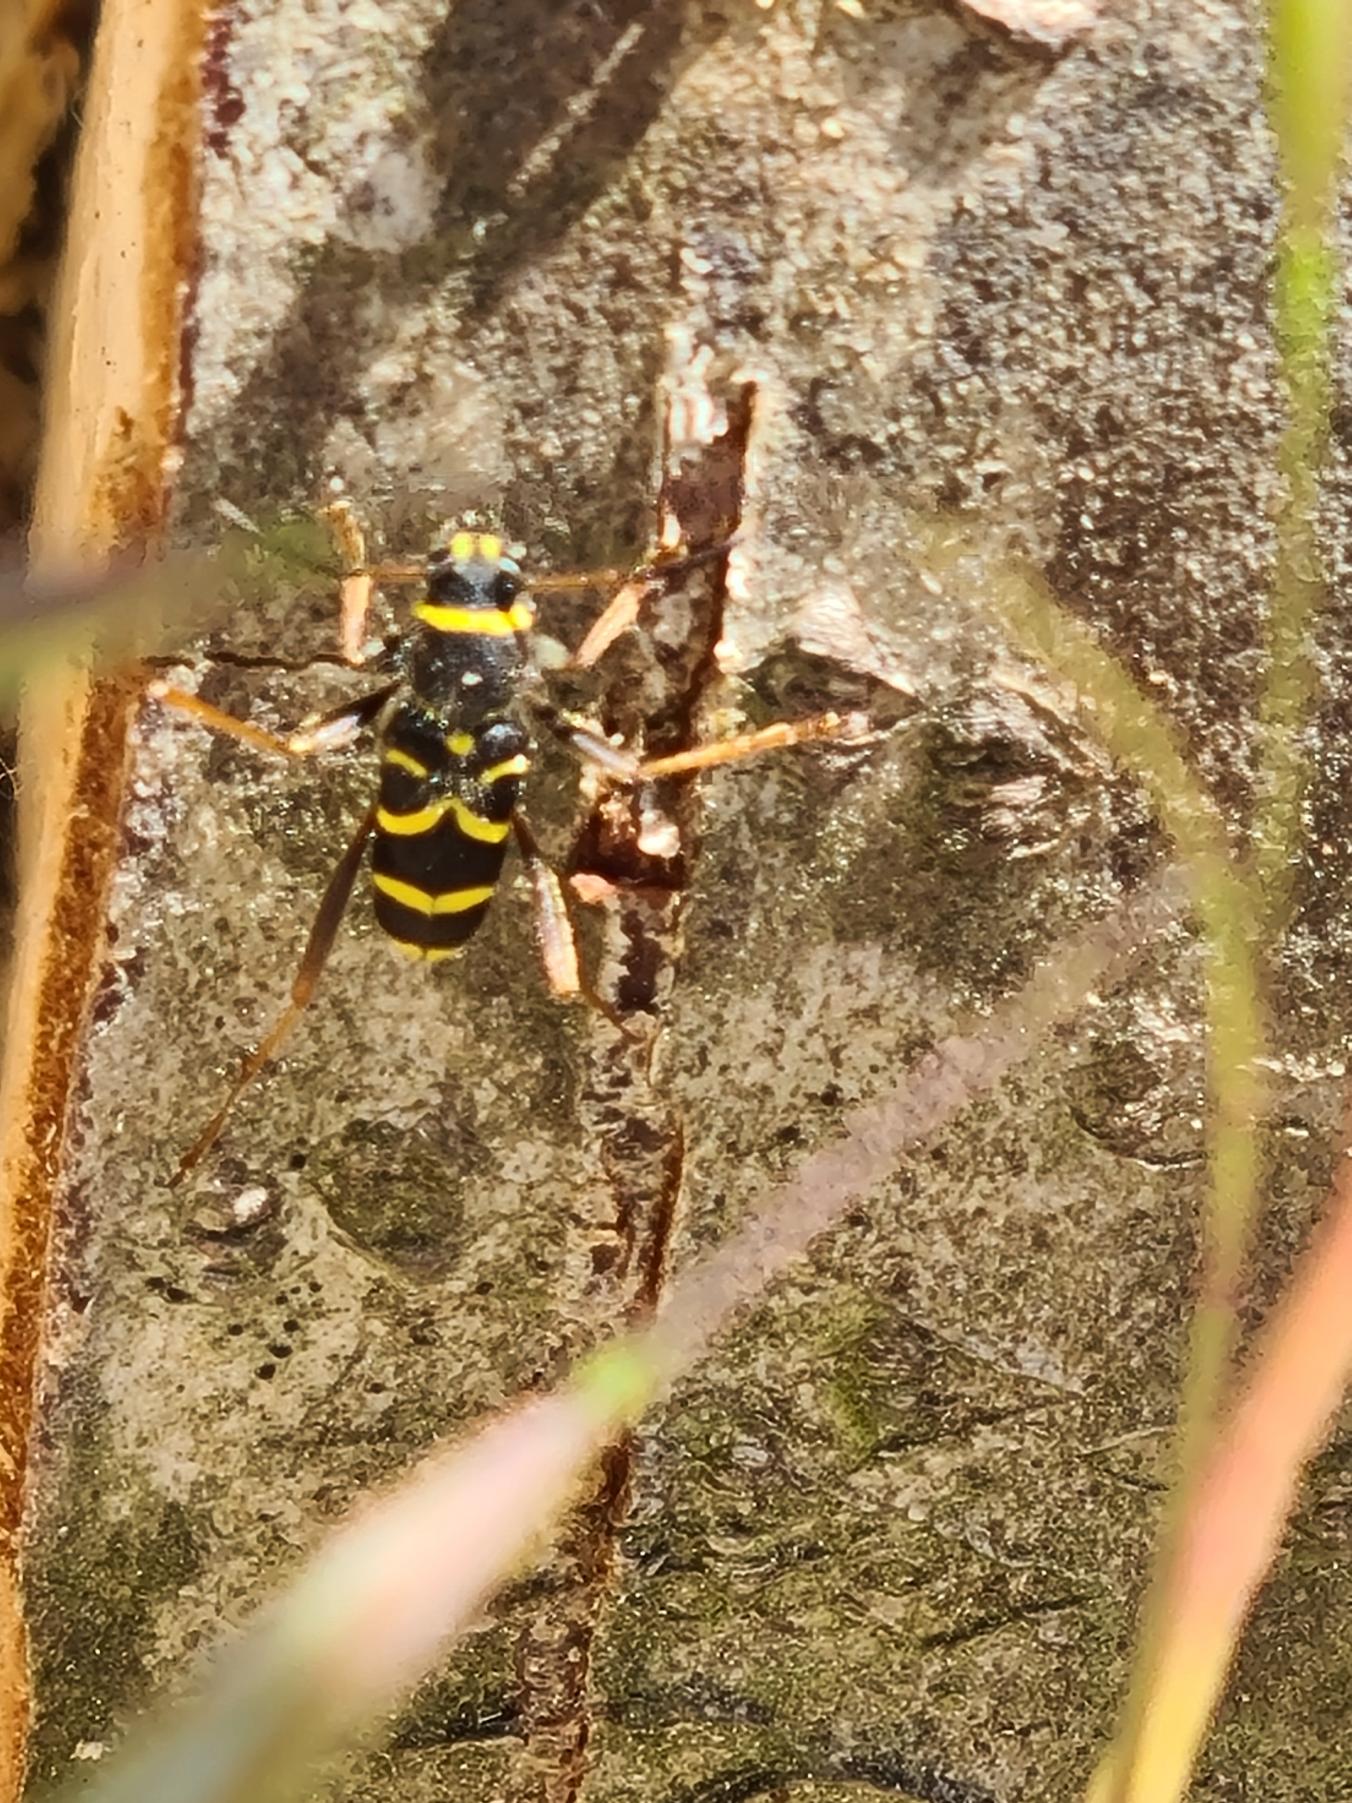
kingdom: Animalia
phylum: Arthropoda
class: Insecta
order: Coleoptera
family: Cerambycidae
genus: Clytus
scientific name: Clytus arietis
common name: Lille hvepsebuk
